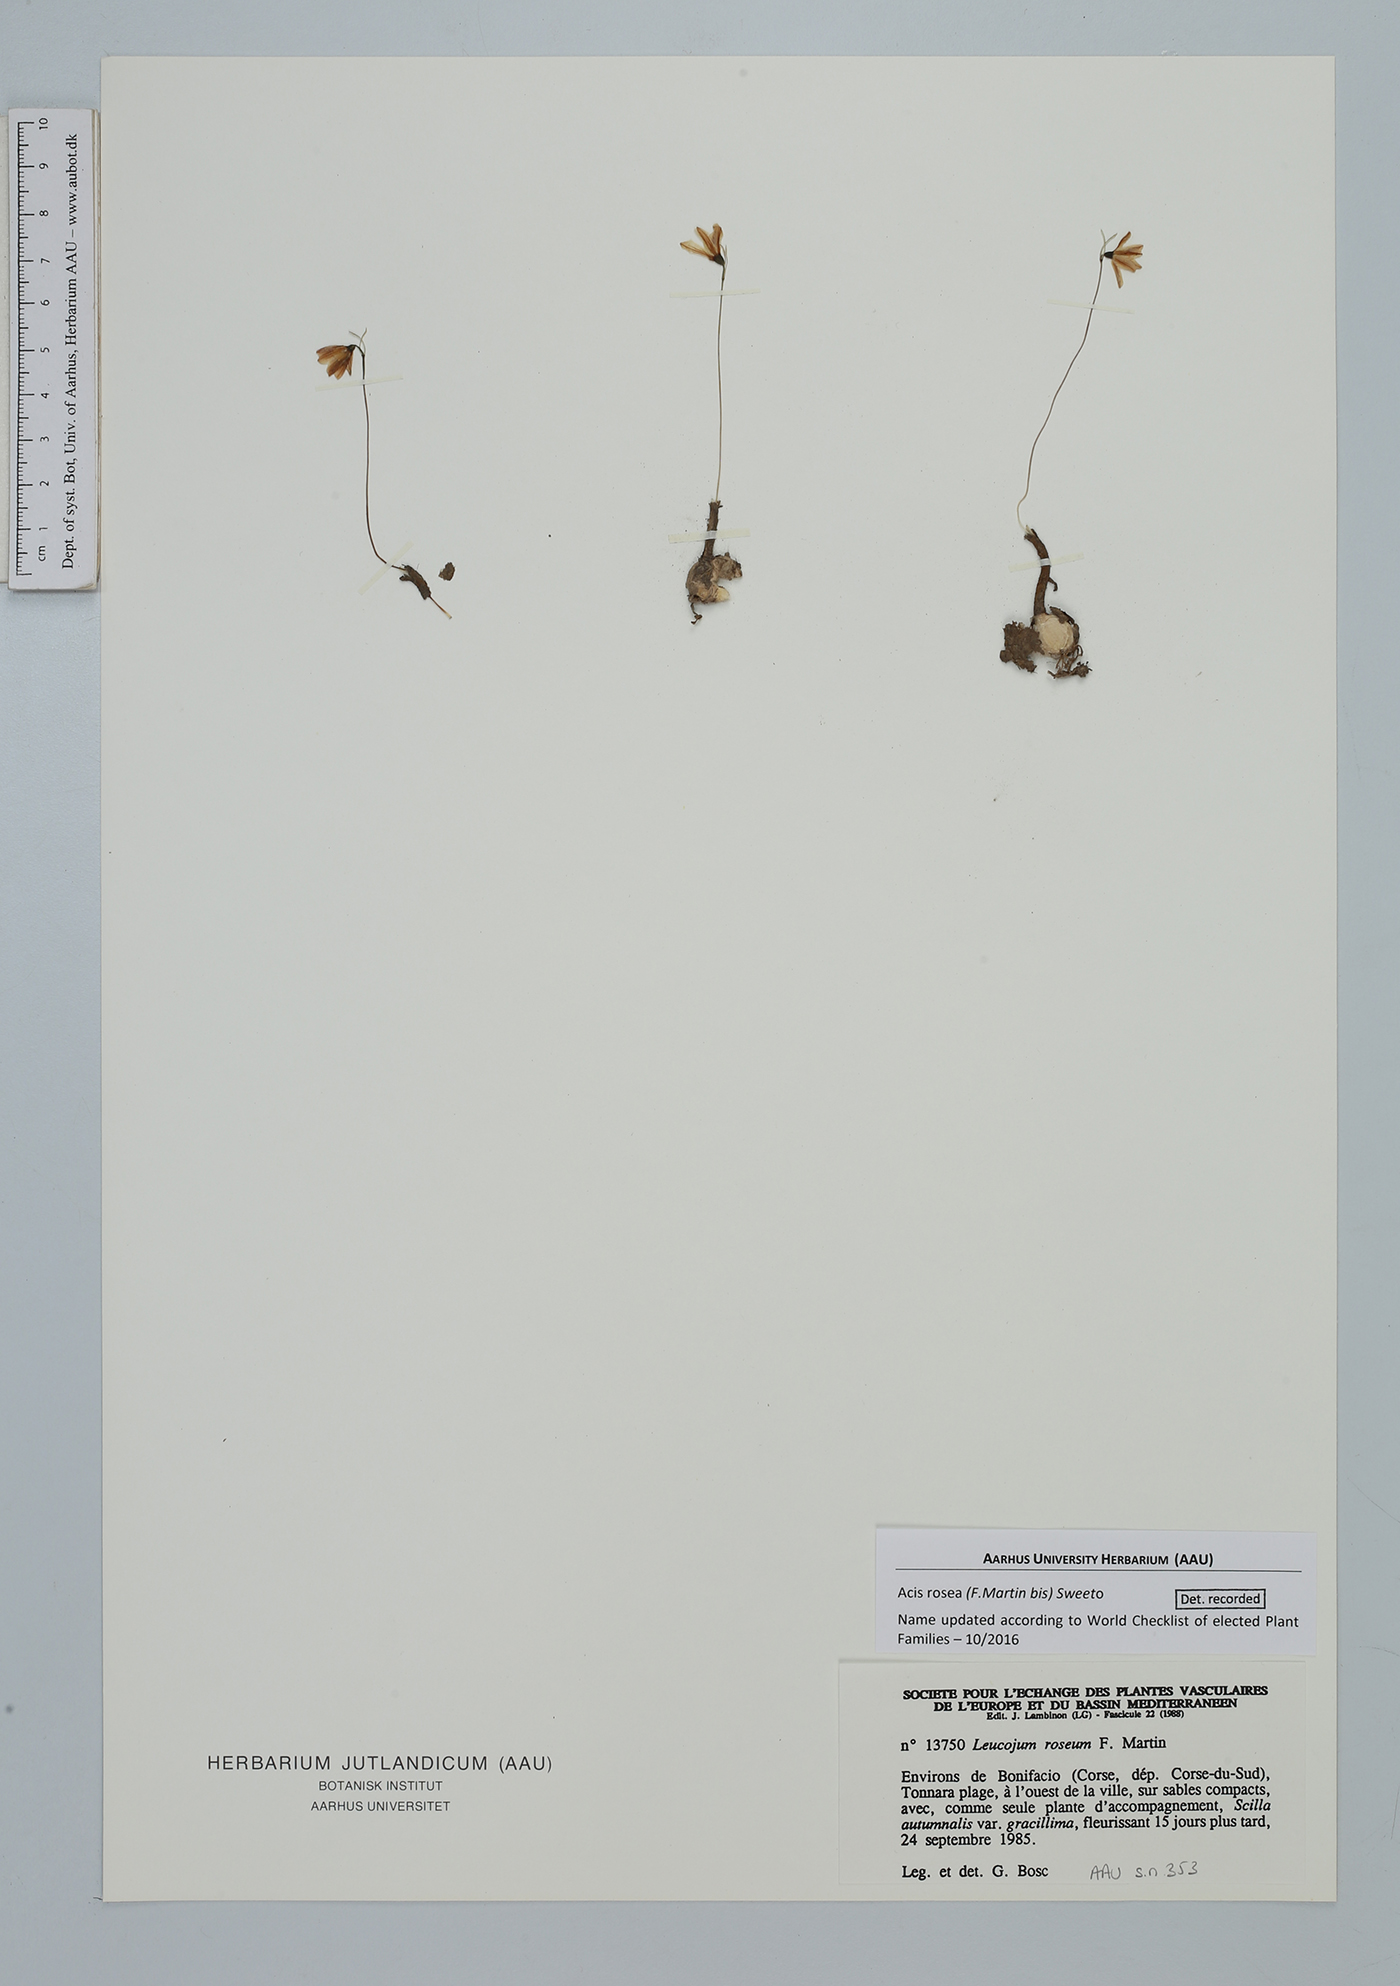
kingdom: Plantae
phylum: Tracheophyta
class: Liliopsida
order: Asparagales
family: Amaryllidaceae
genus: Acis
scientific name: Acis rosea
